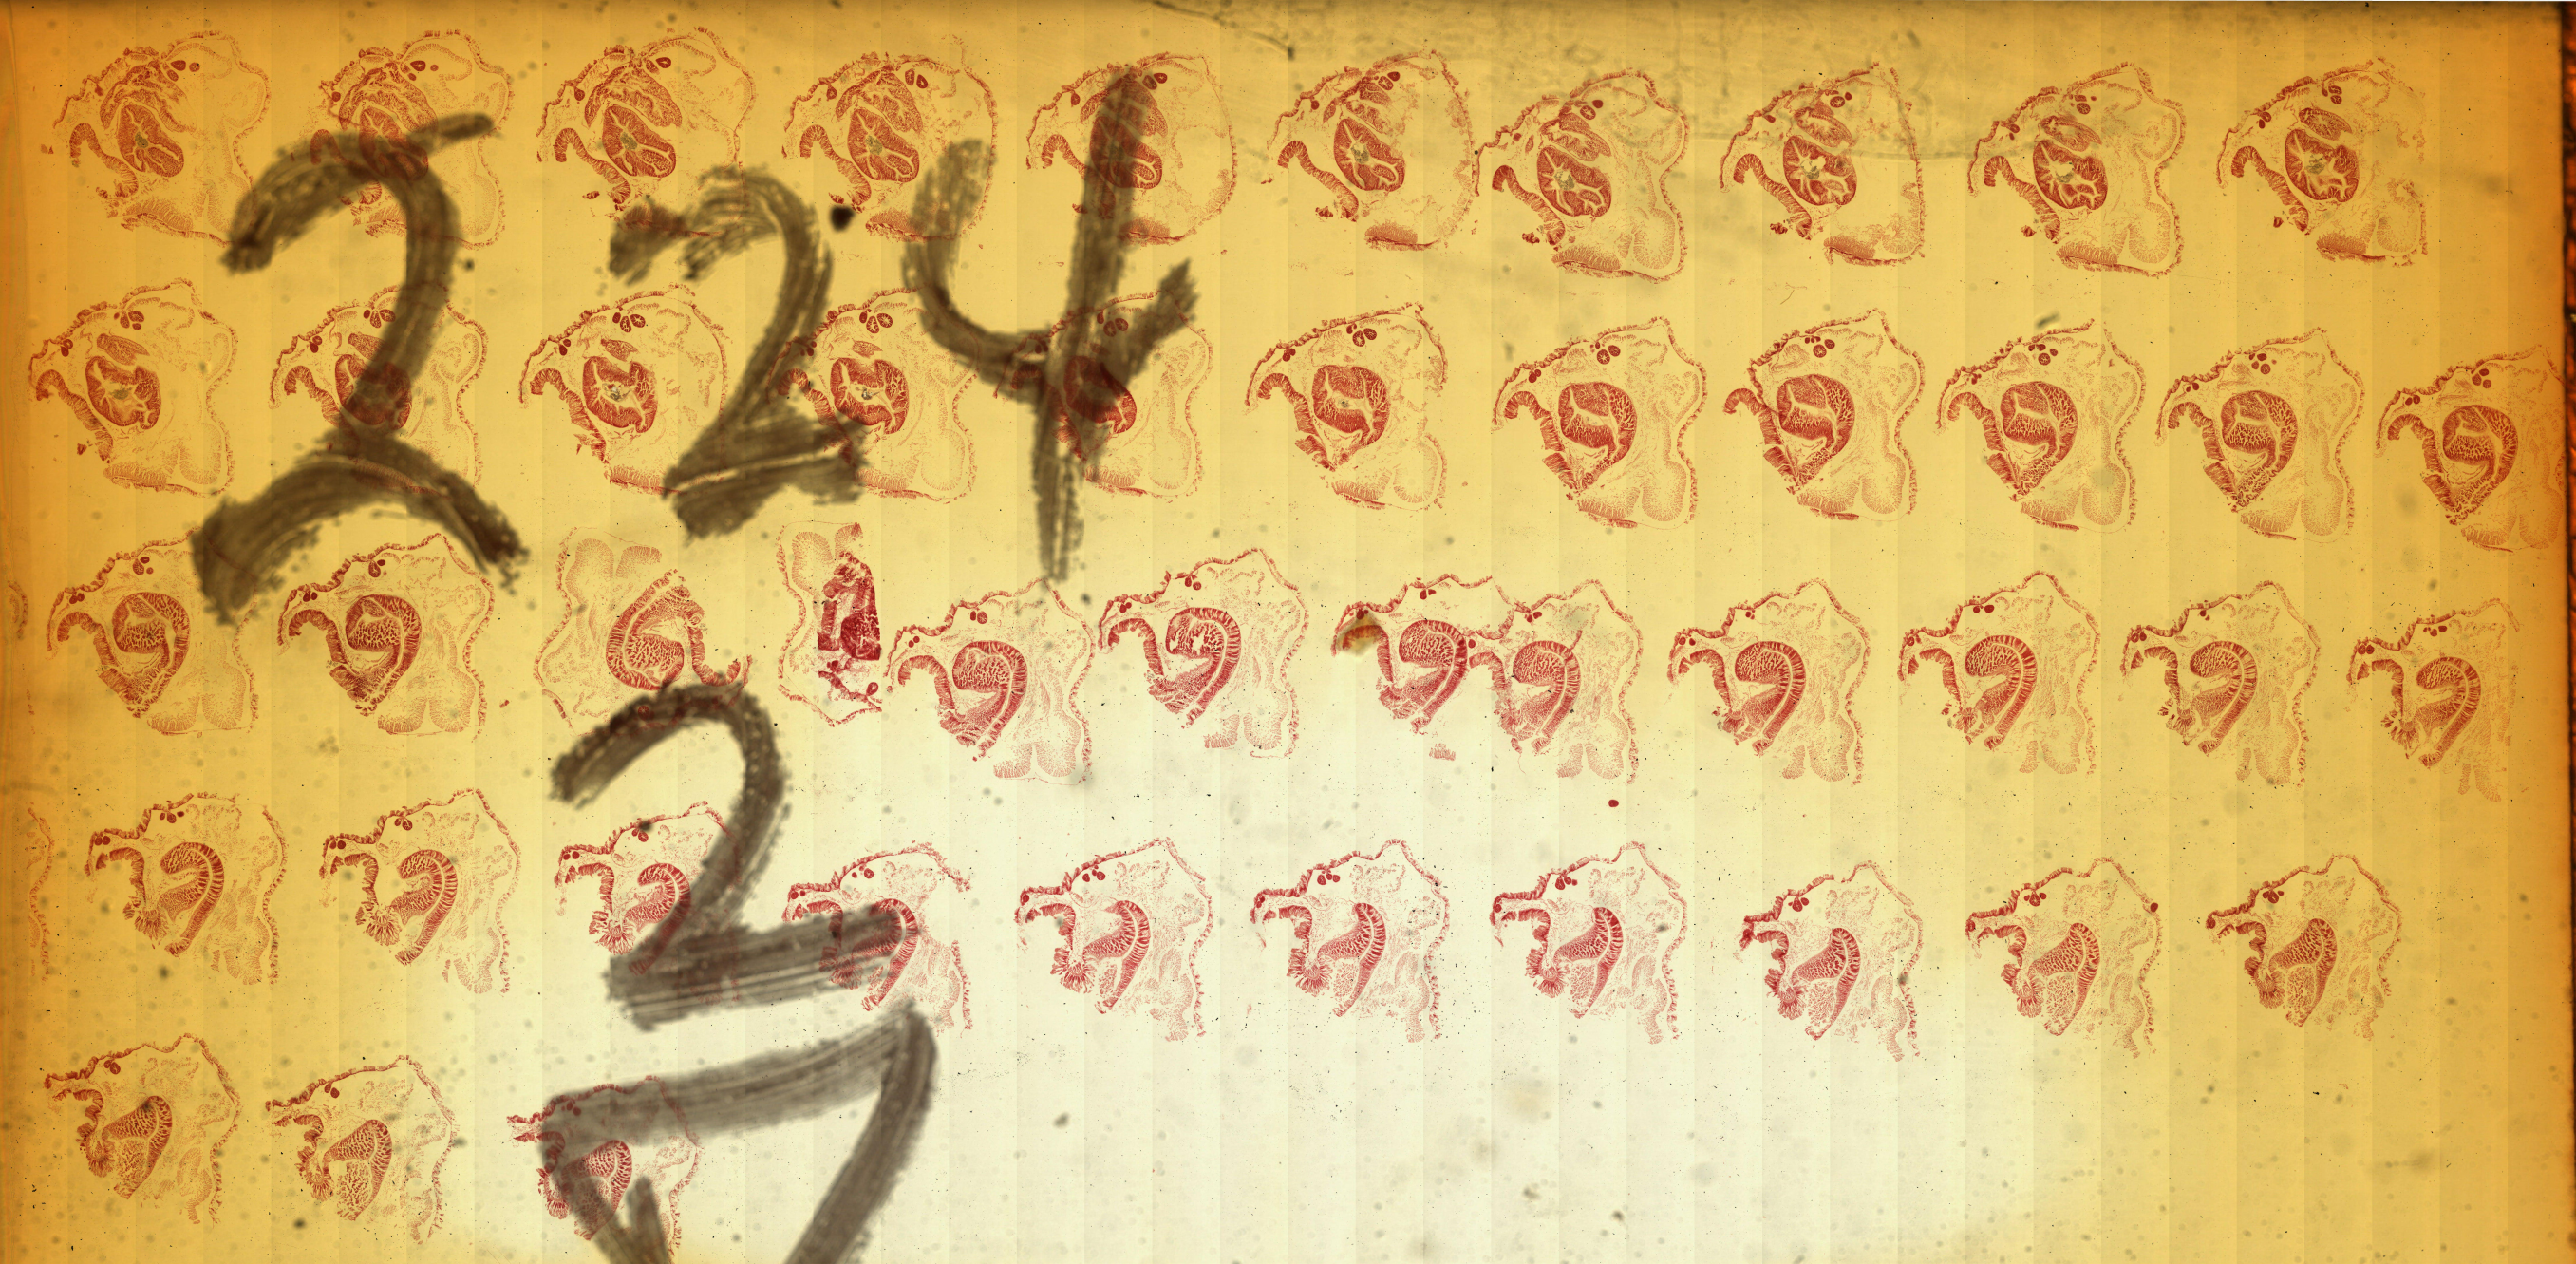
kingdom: Animalia
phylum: Hemichordata
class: Enteropneusta
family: Harrimaniidae
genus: Harrimania
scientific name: Harrimania maculosa
